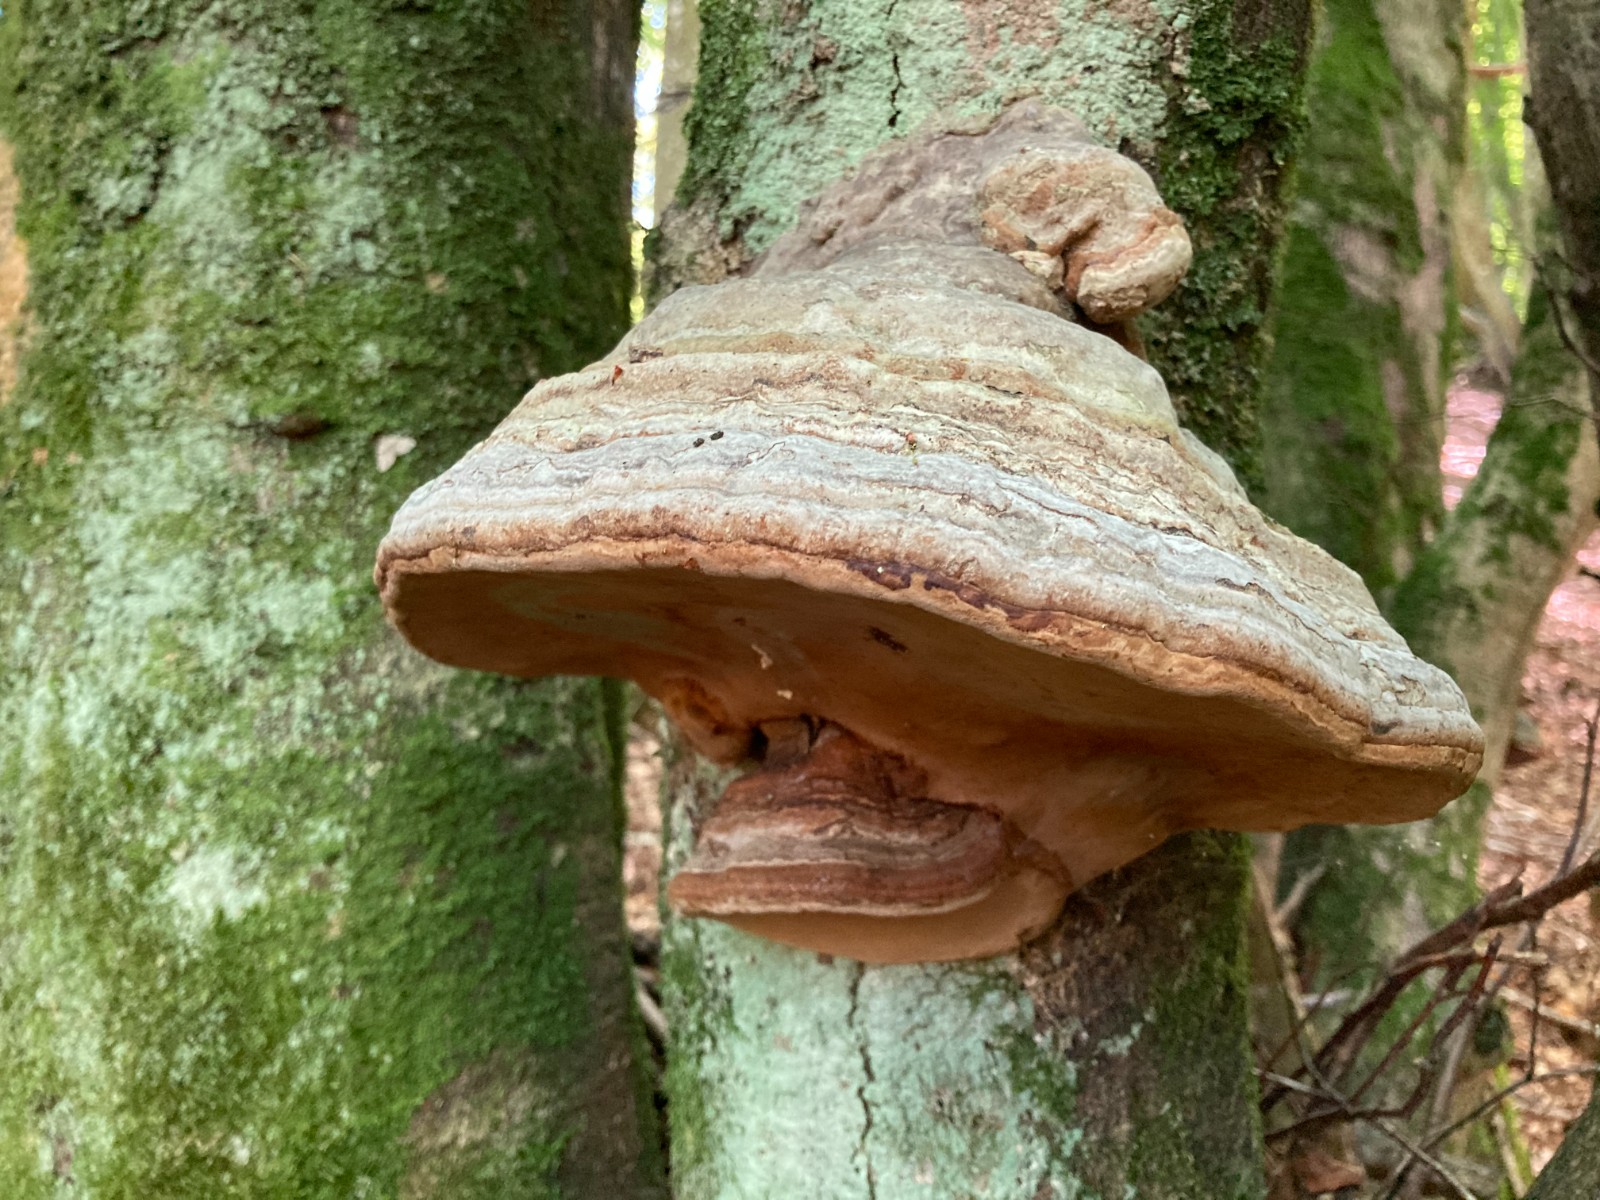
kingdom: Fungi
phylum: Basidiomycota
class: Agaricomycetes
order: Polyporales
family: Polyporaceae
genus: Fomes
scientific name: Fomes fomentarius
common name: tøndersvamp
